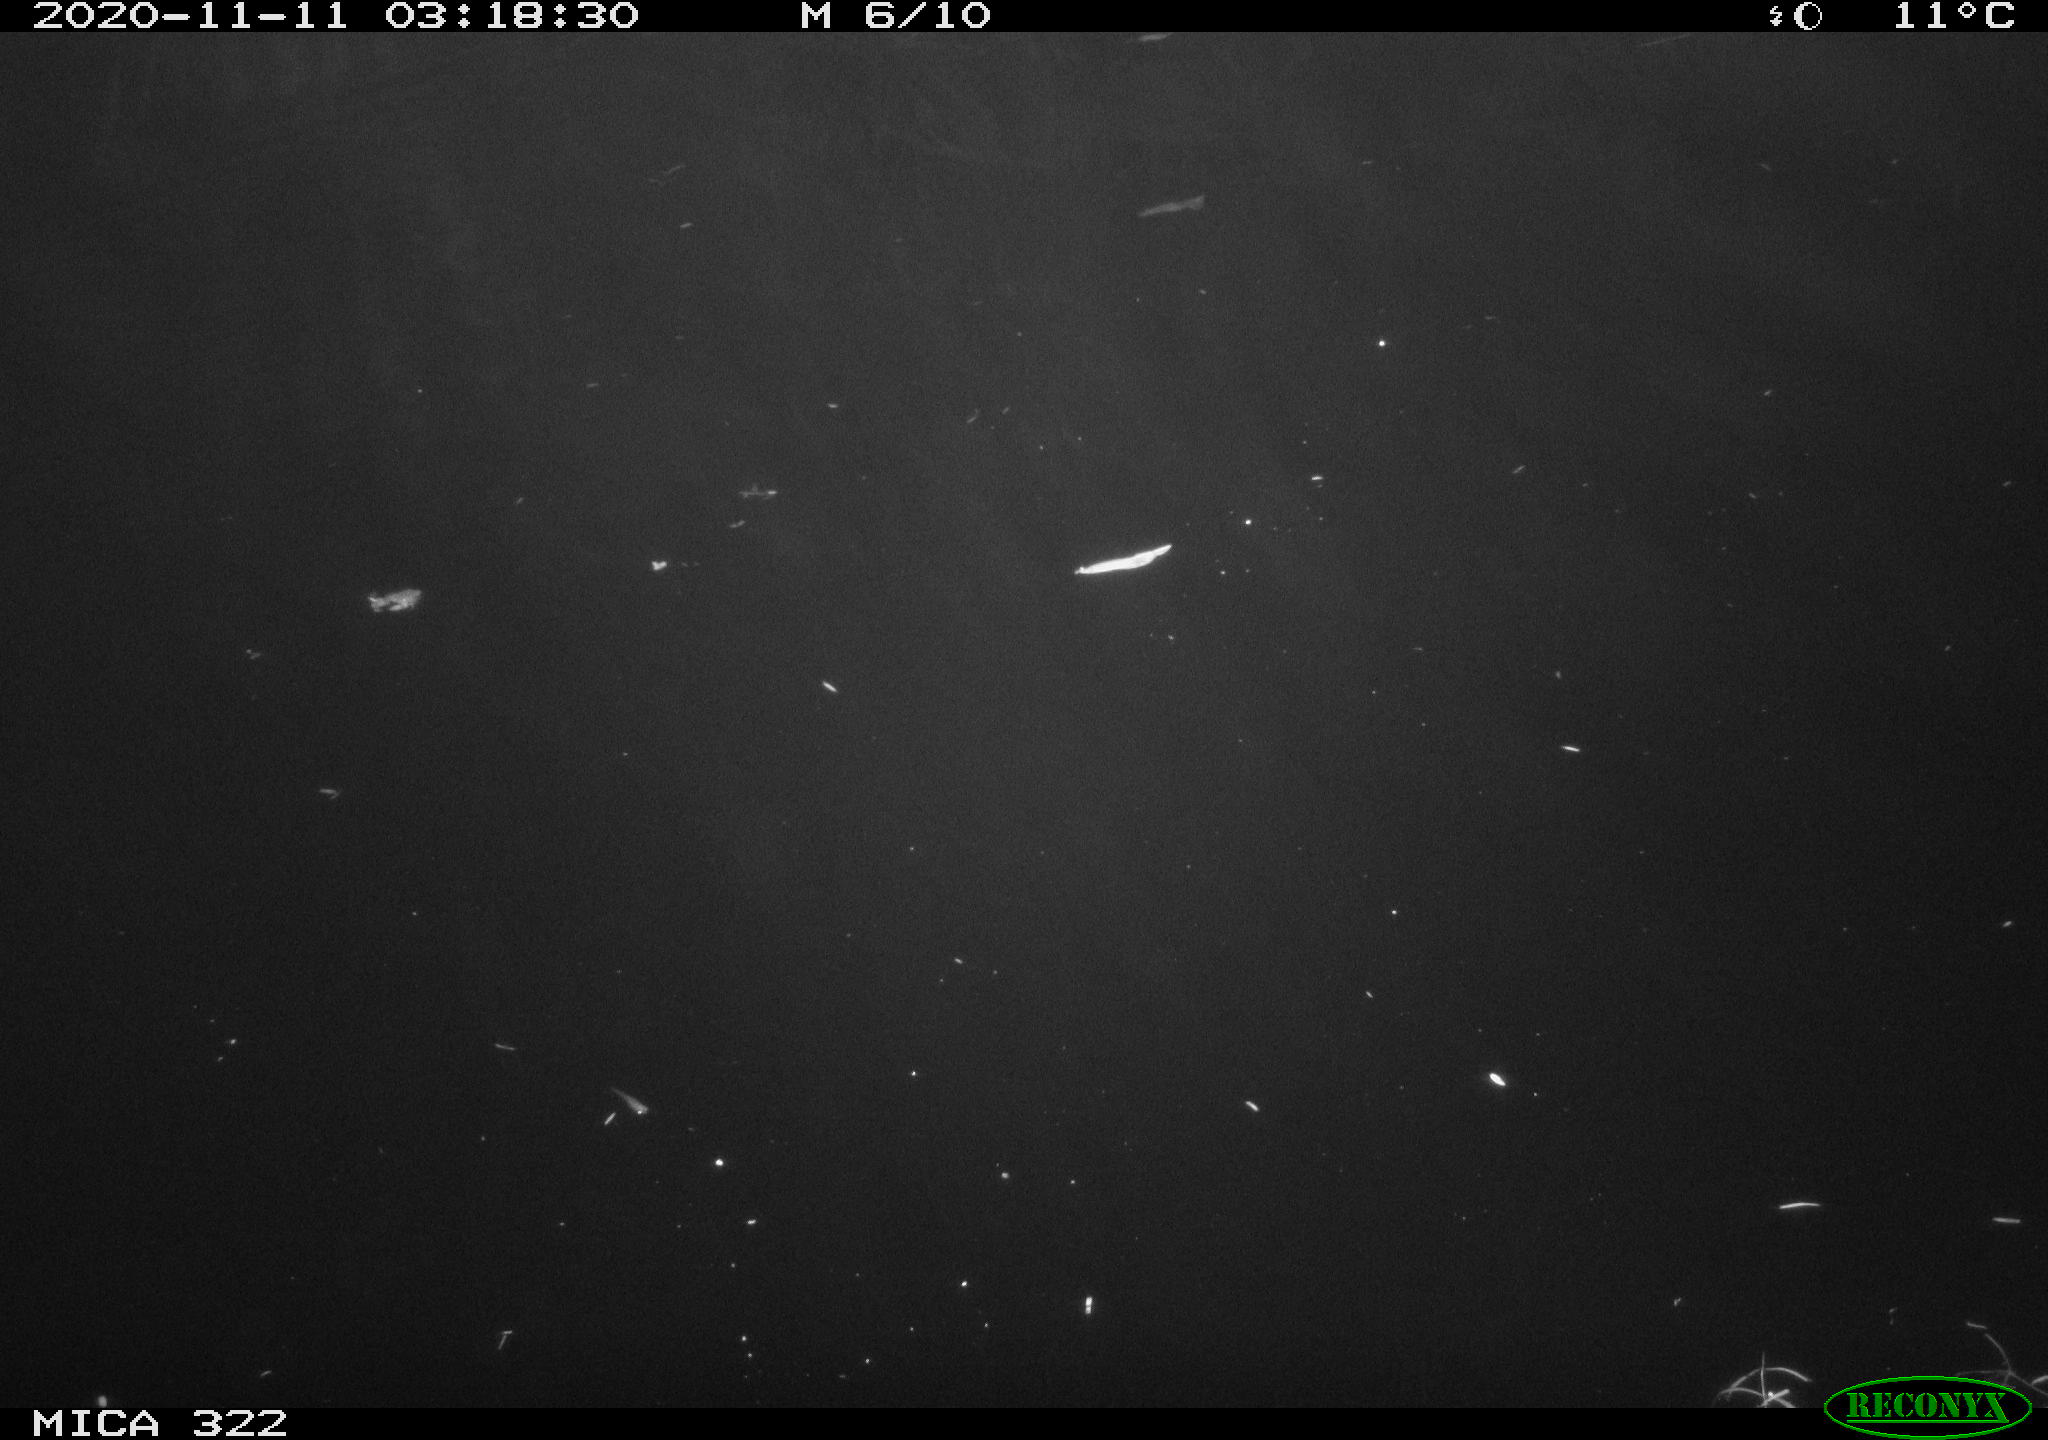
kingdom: Animalia
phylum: Chordata
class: Mammalia
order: Rodentia
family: Muridae
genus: Rattus
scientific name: Rattus norvegicus
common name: Brown rat
